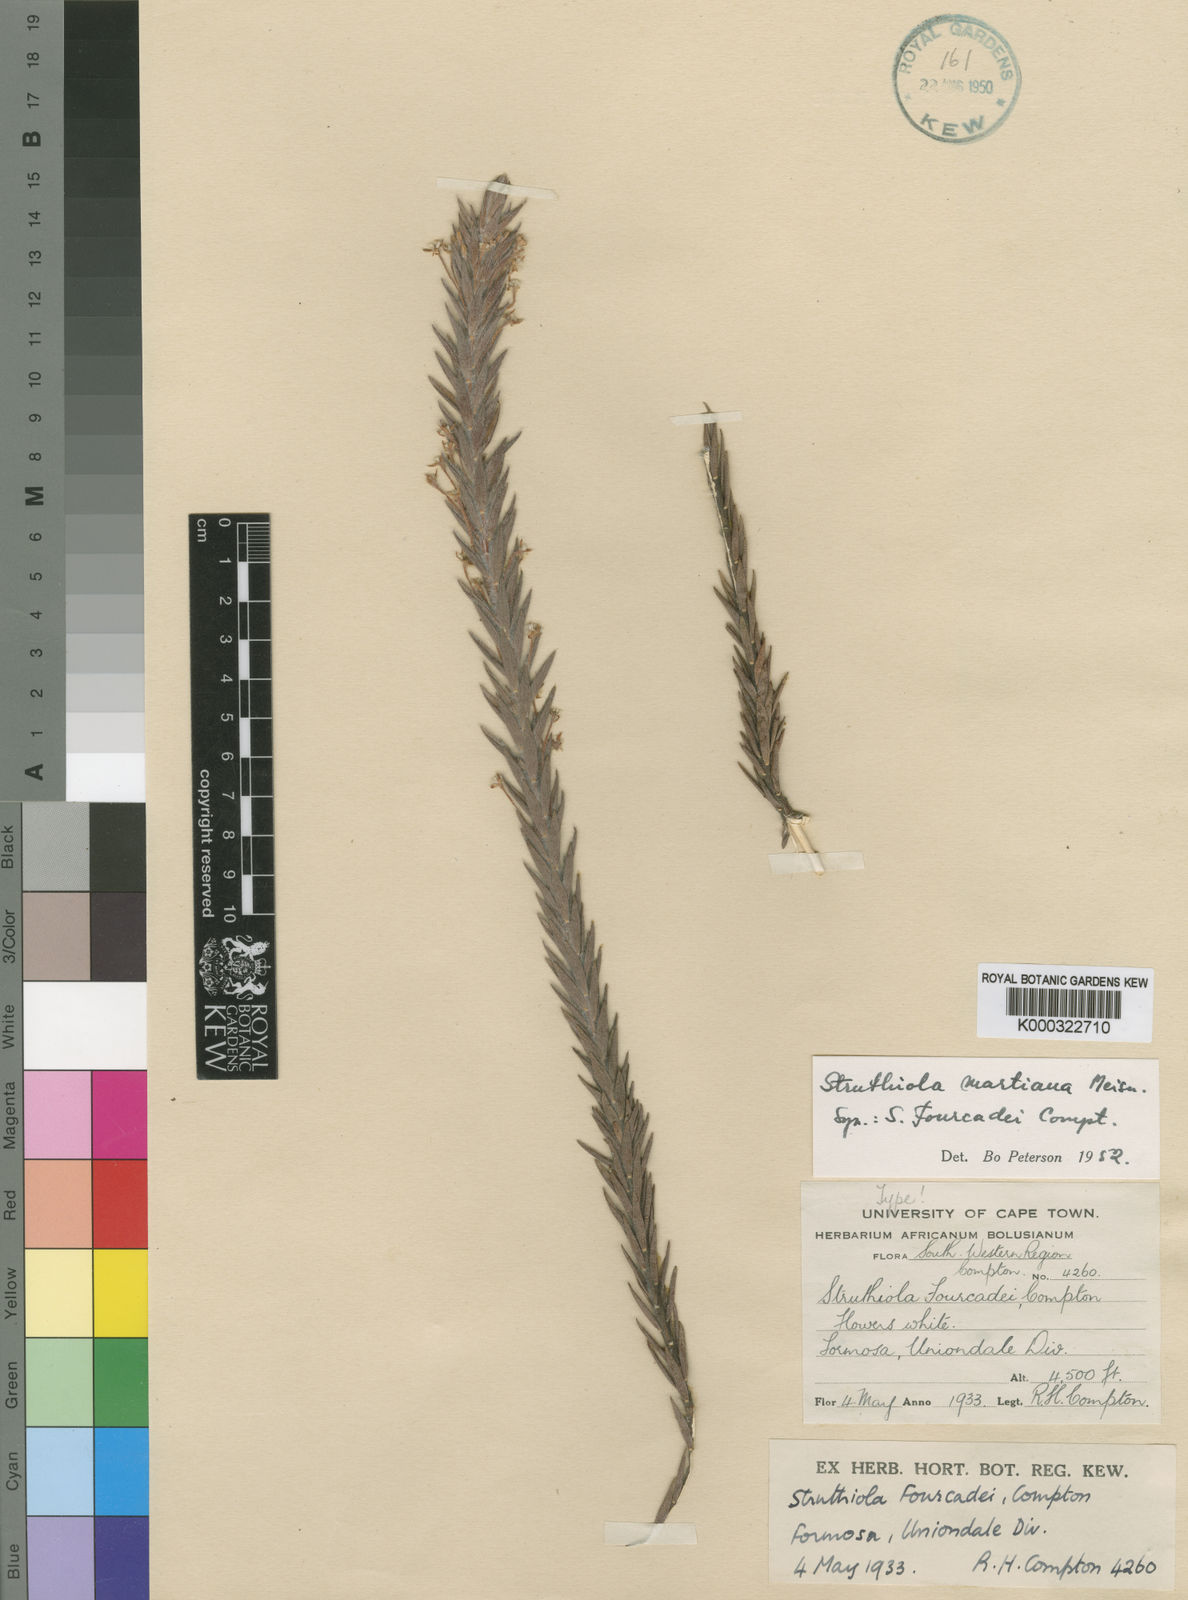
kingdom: Plantae
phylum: Tracheophyta
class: Magnoliopsida
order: Malvales
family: Thymelaeaceae
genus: Struthiola
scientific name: Struthiola martiana
